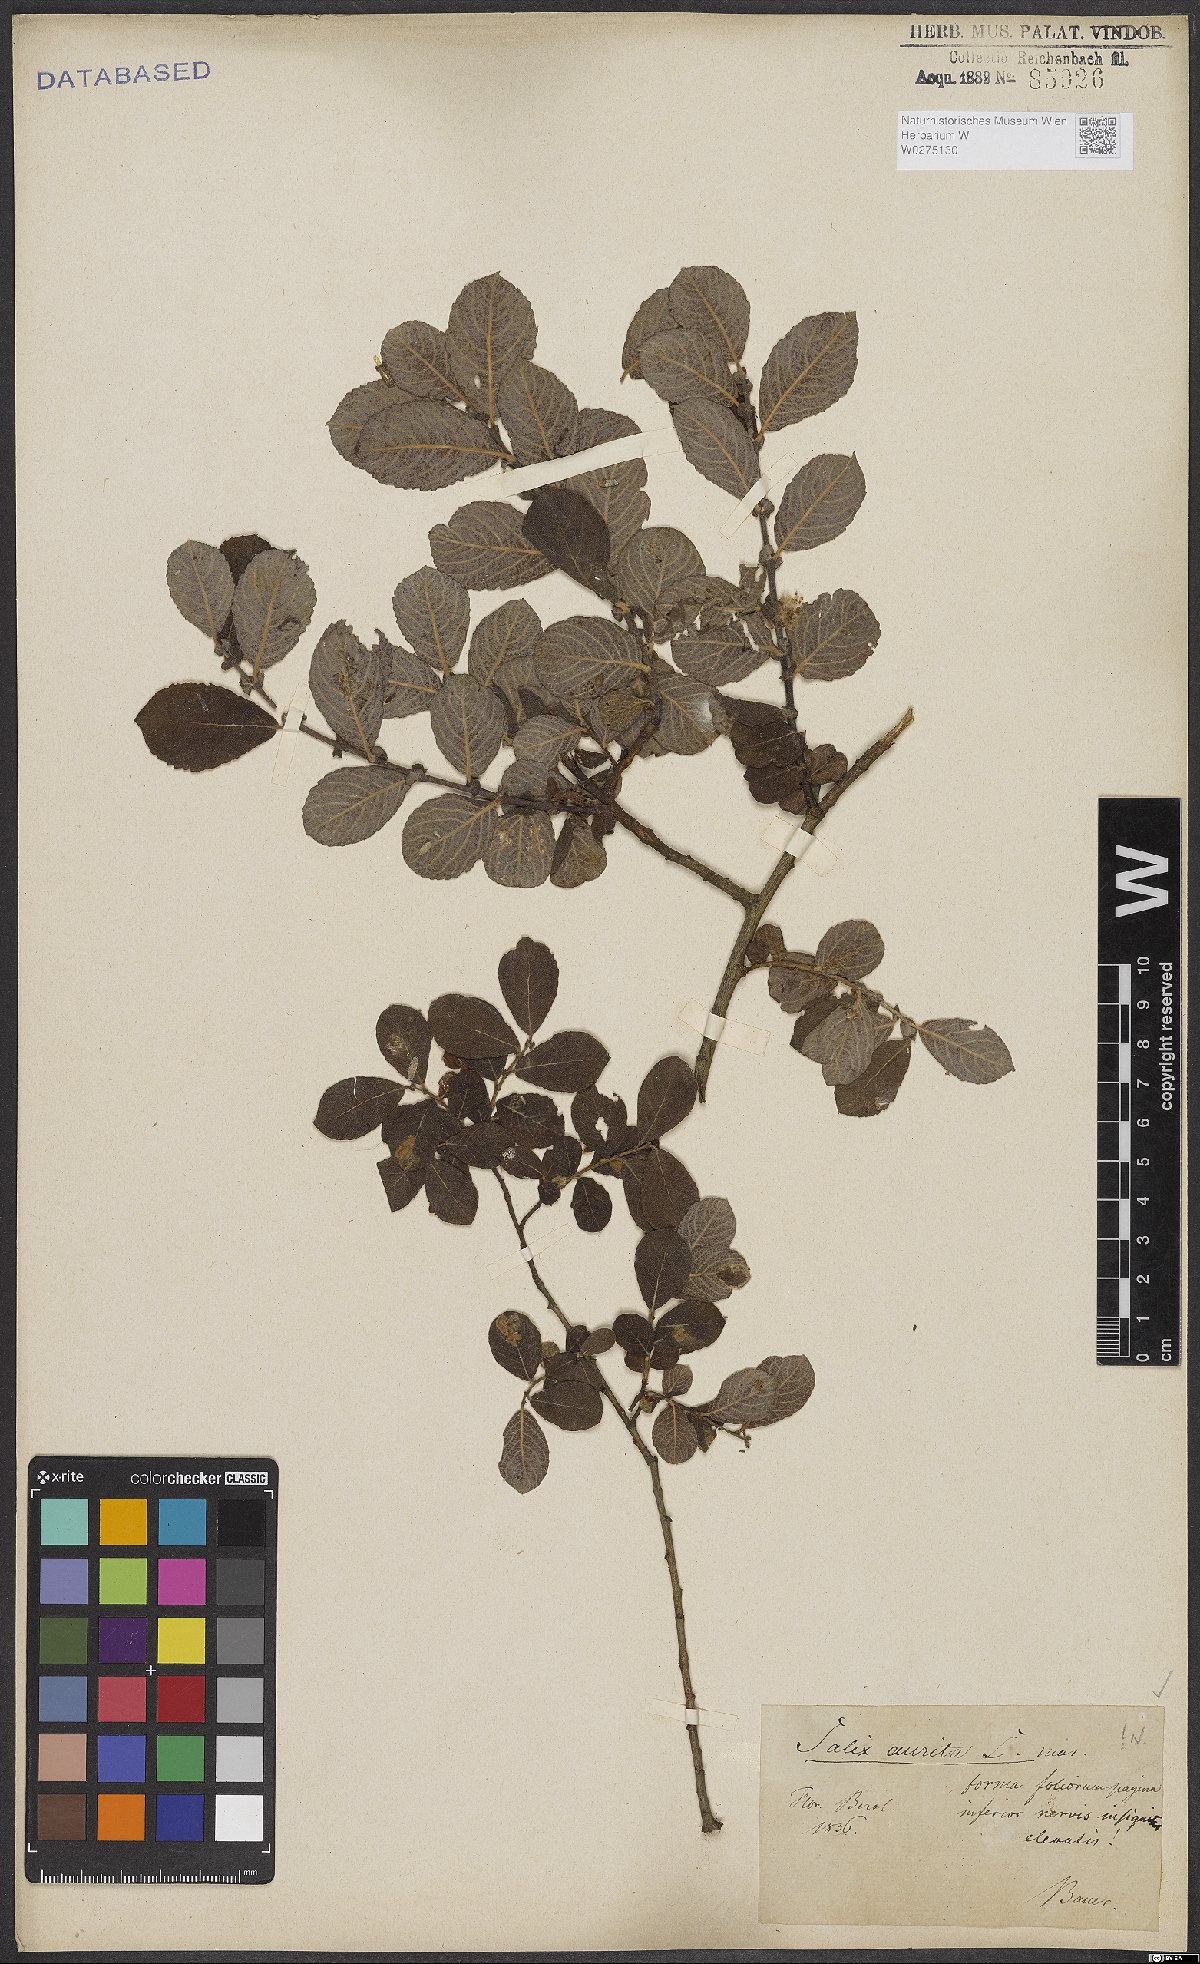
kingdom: Plantae
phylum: Tracheophyta
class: Magnoliopsida
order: Malpighiales
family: Salicaceae
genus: Salix
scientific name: Salix aurita
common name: Eared willow
